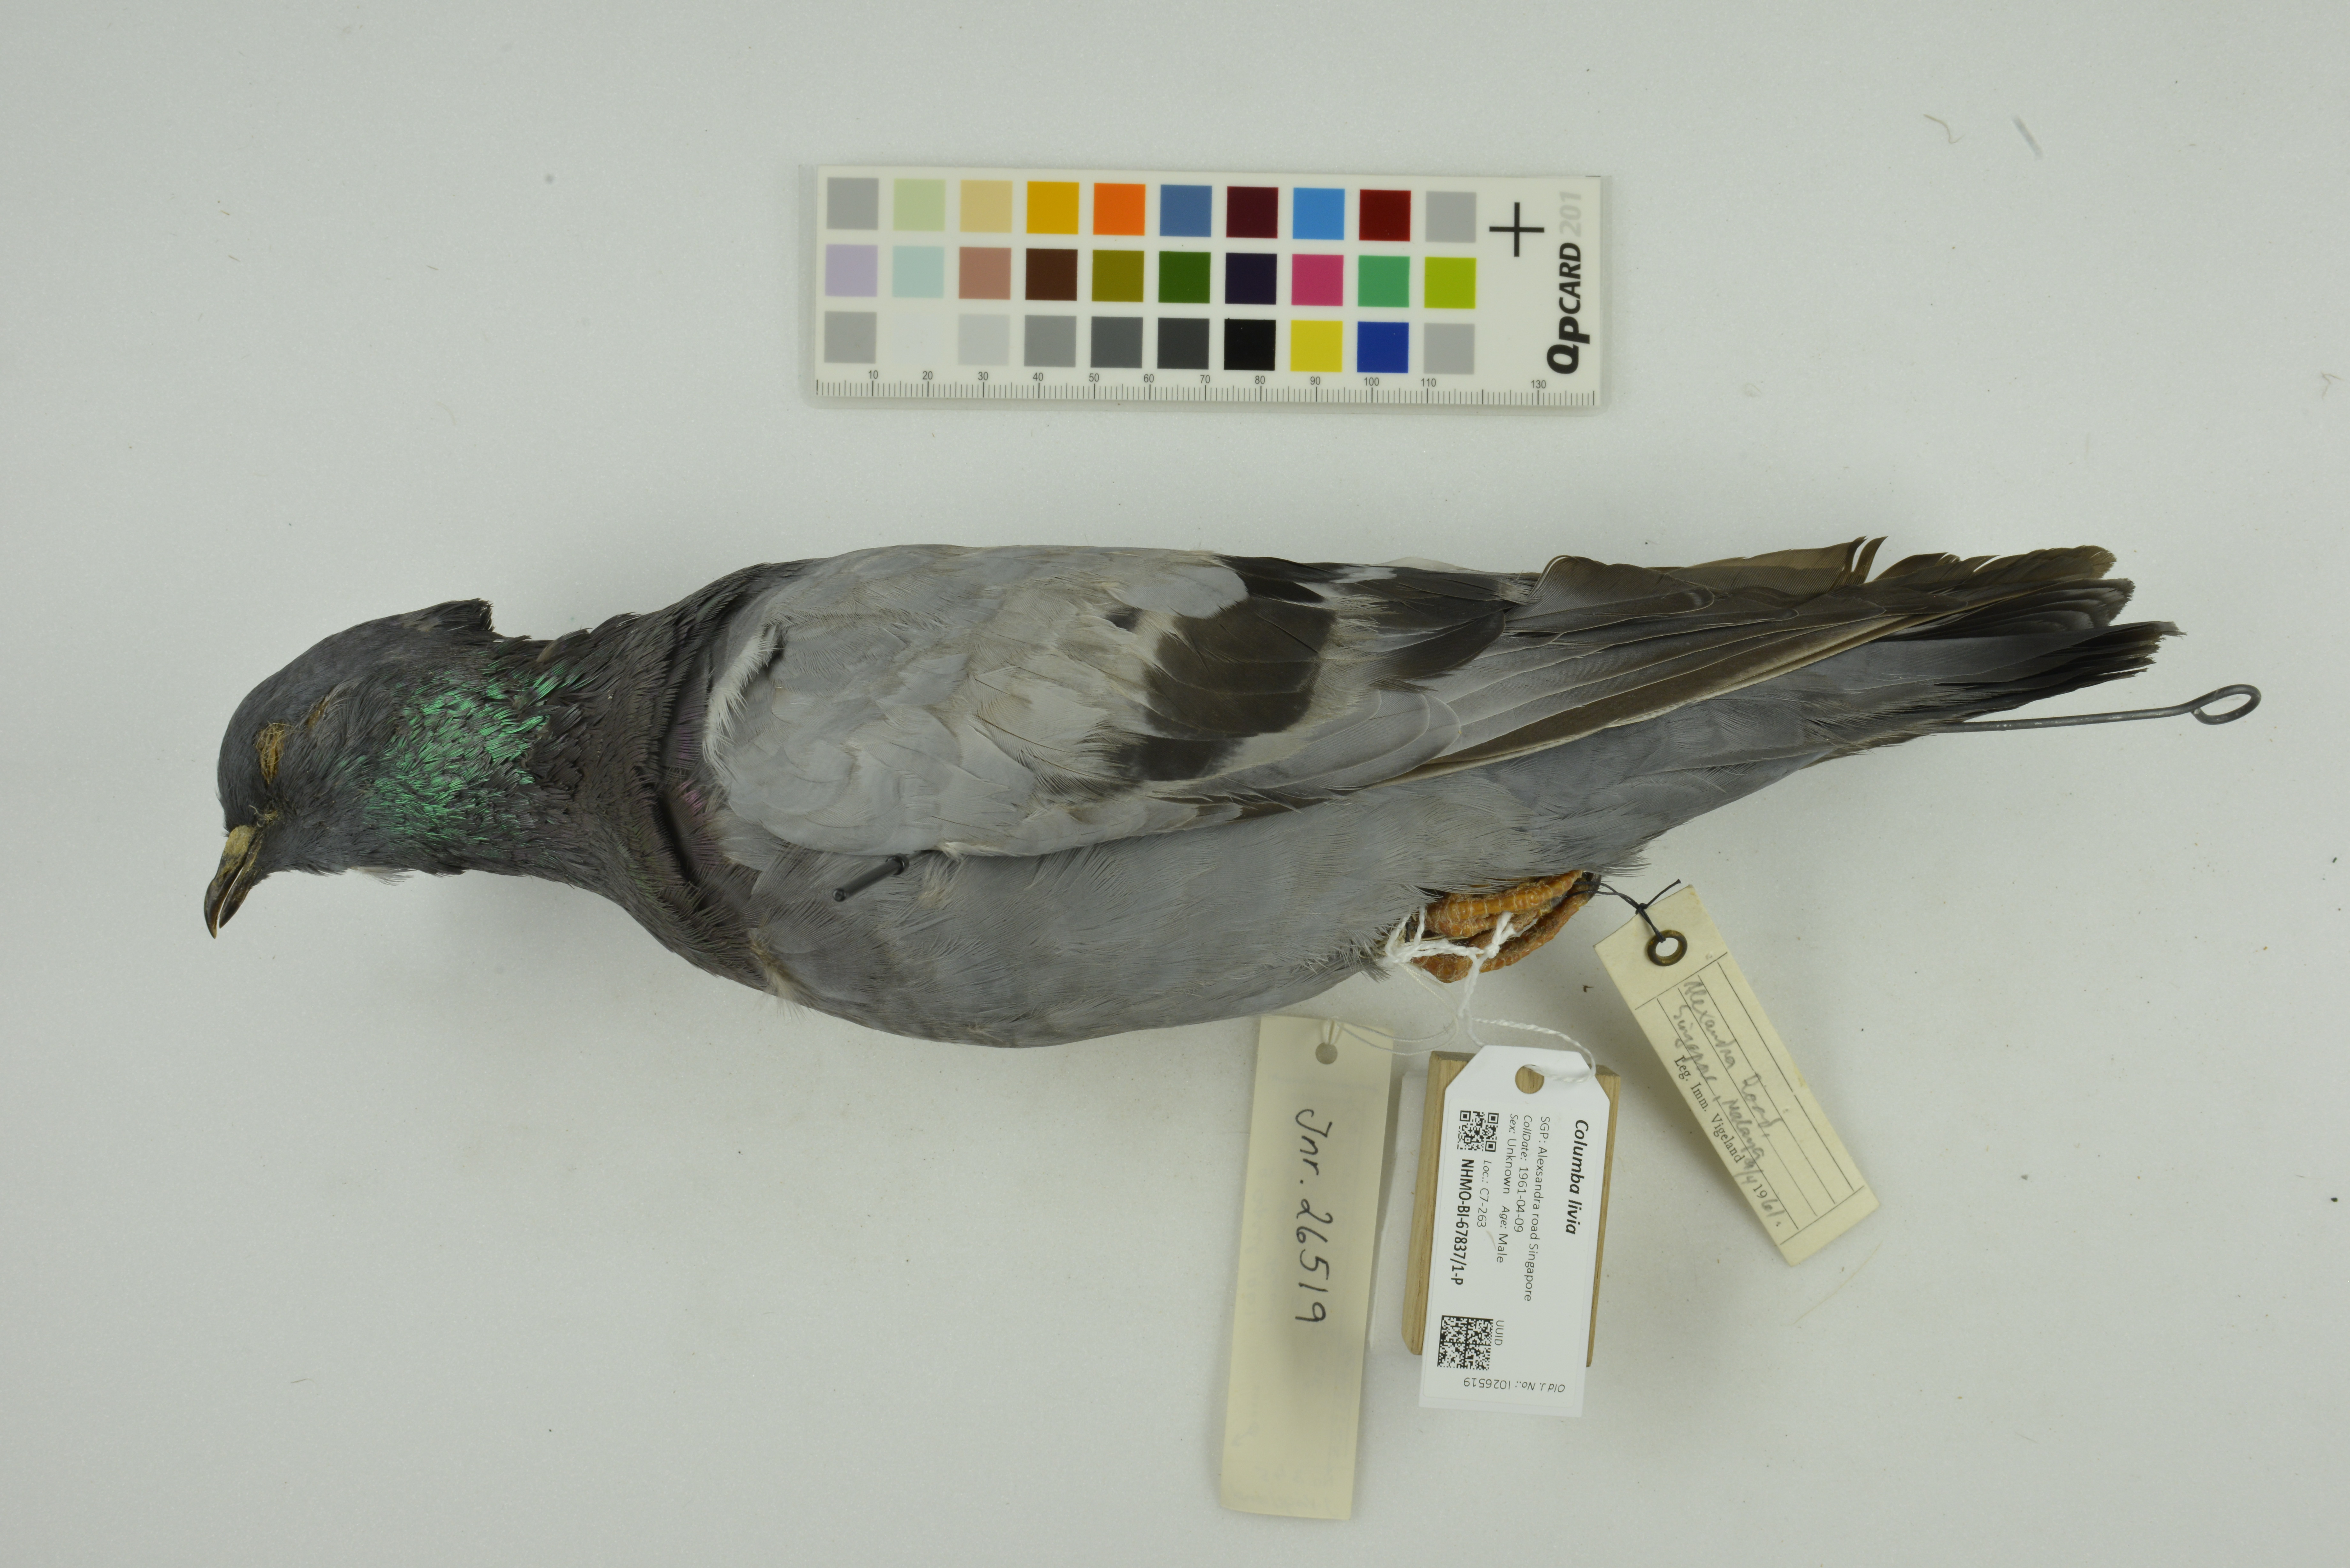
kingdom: Animalia
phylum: Chordata
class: Aves
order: Columbiformes
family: Columbidae
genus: Columba
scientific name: Columba livia
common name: Rock pigeon
